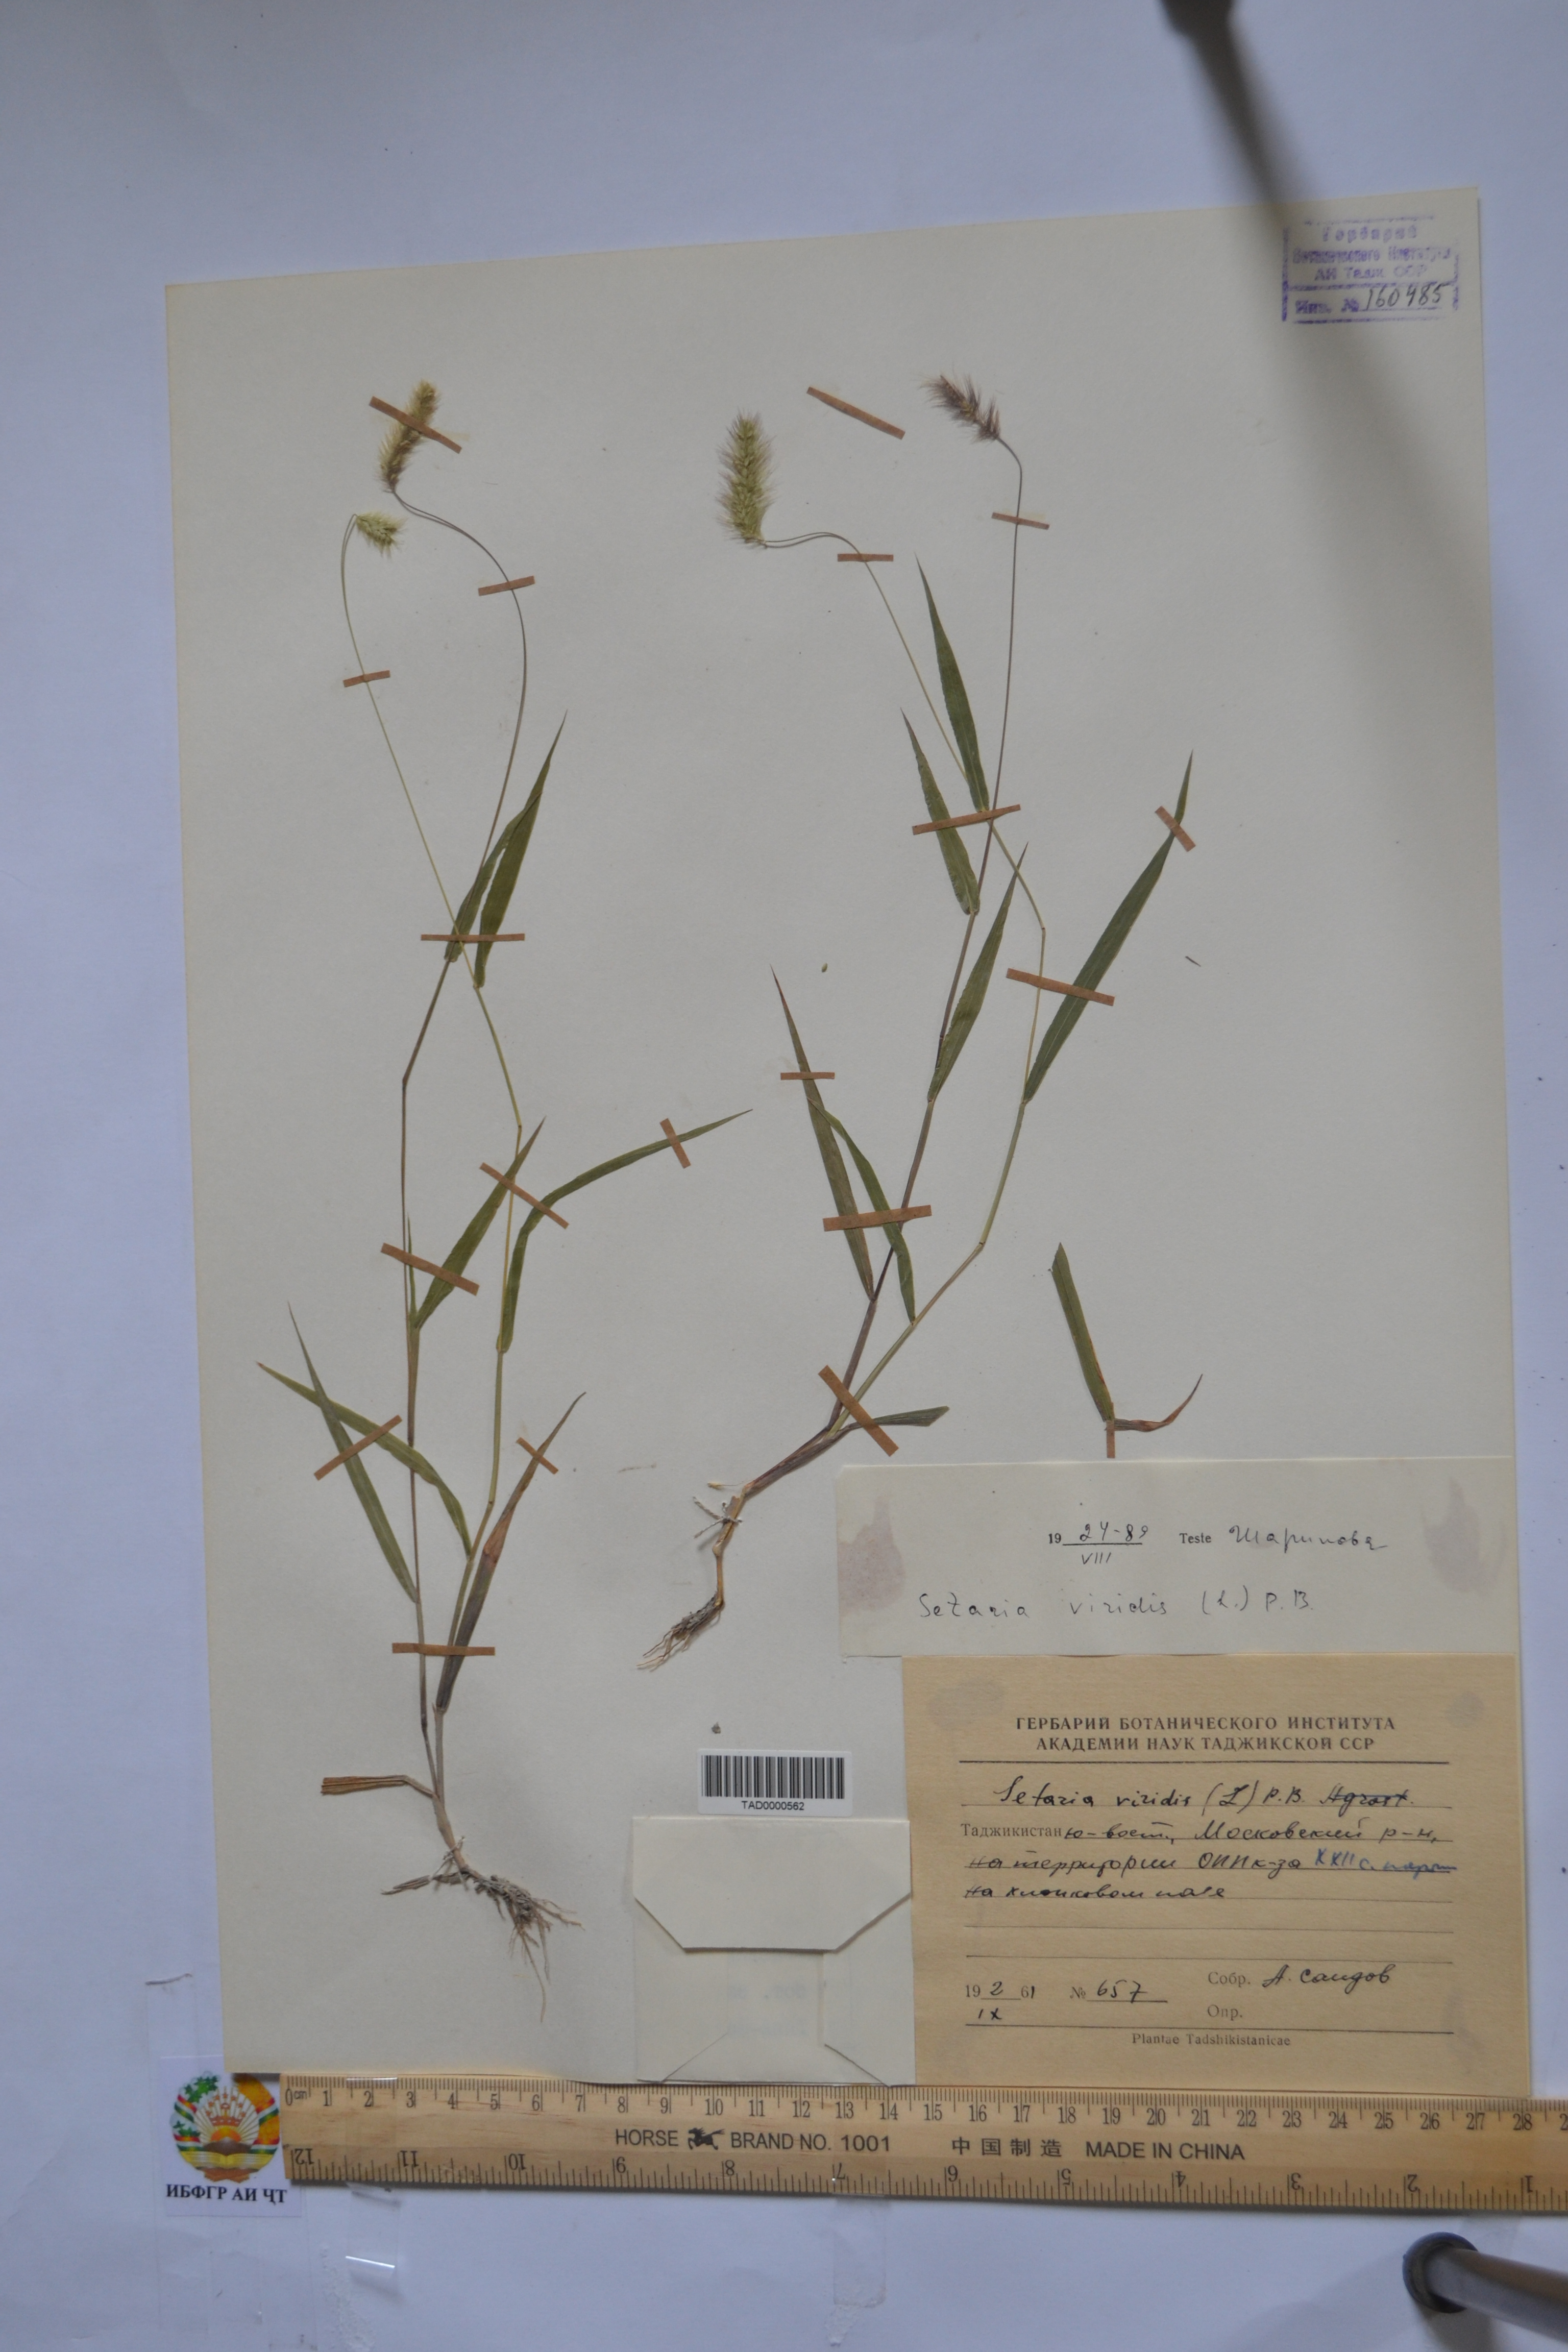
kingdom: Plantae
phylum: Tracheophyta
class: Liliopsida
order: Poales
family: Poaceae
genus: Setaria
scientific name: Setaria viridis
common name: Green bristlegrass
